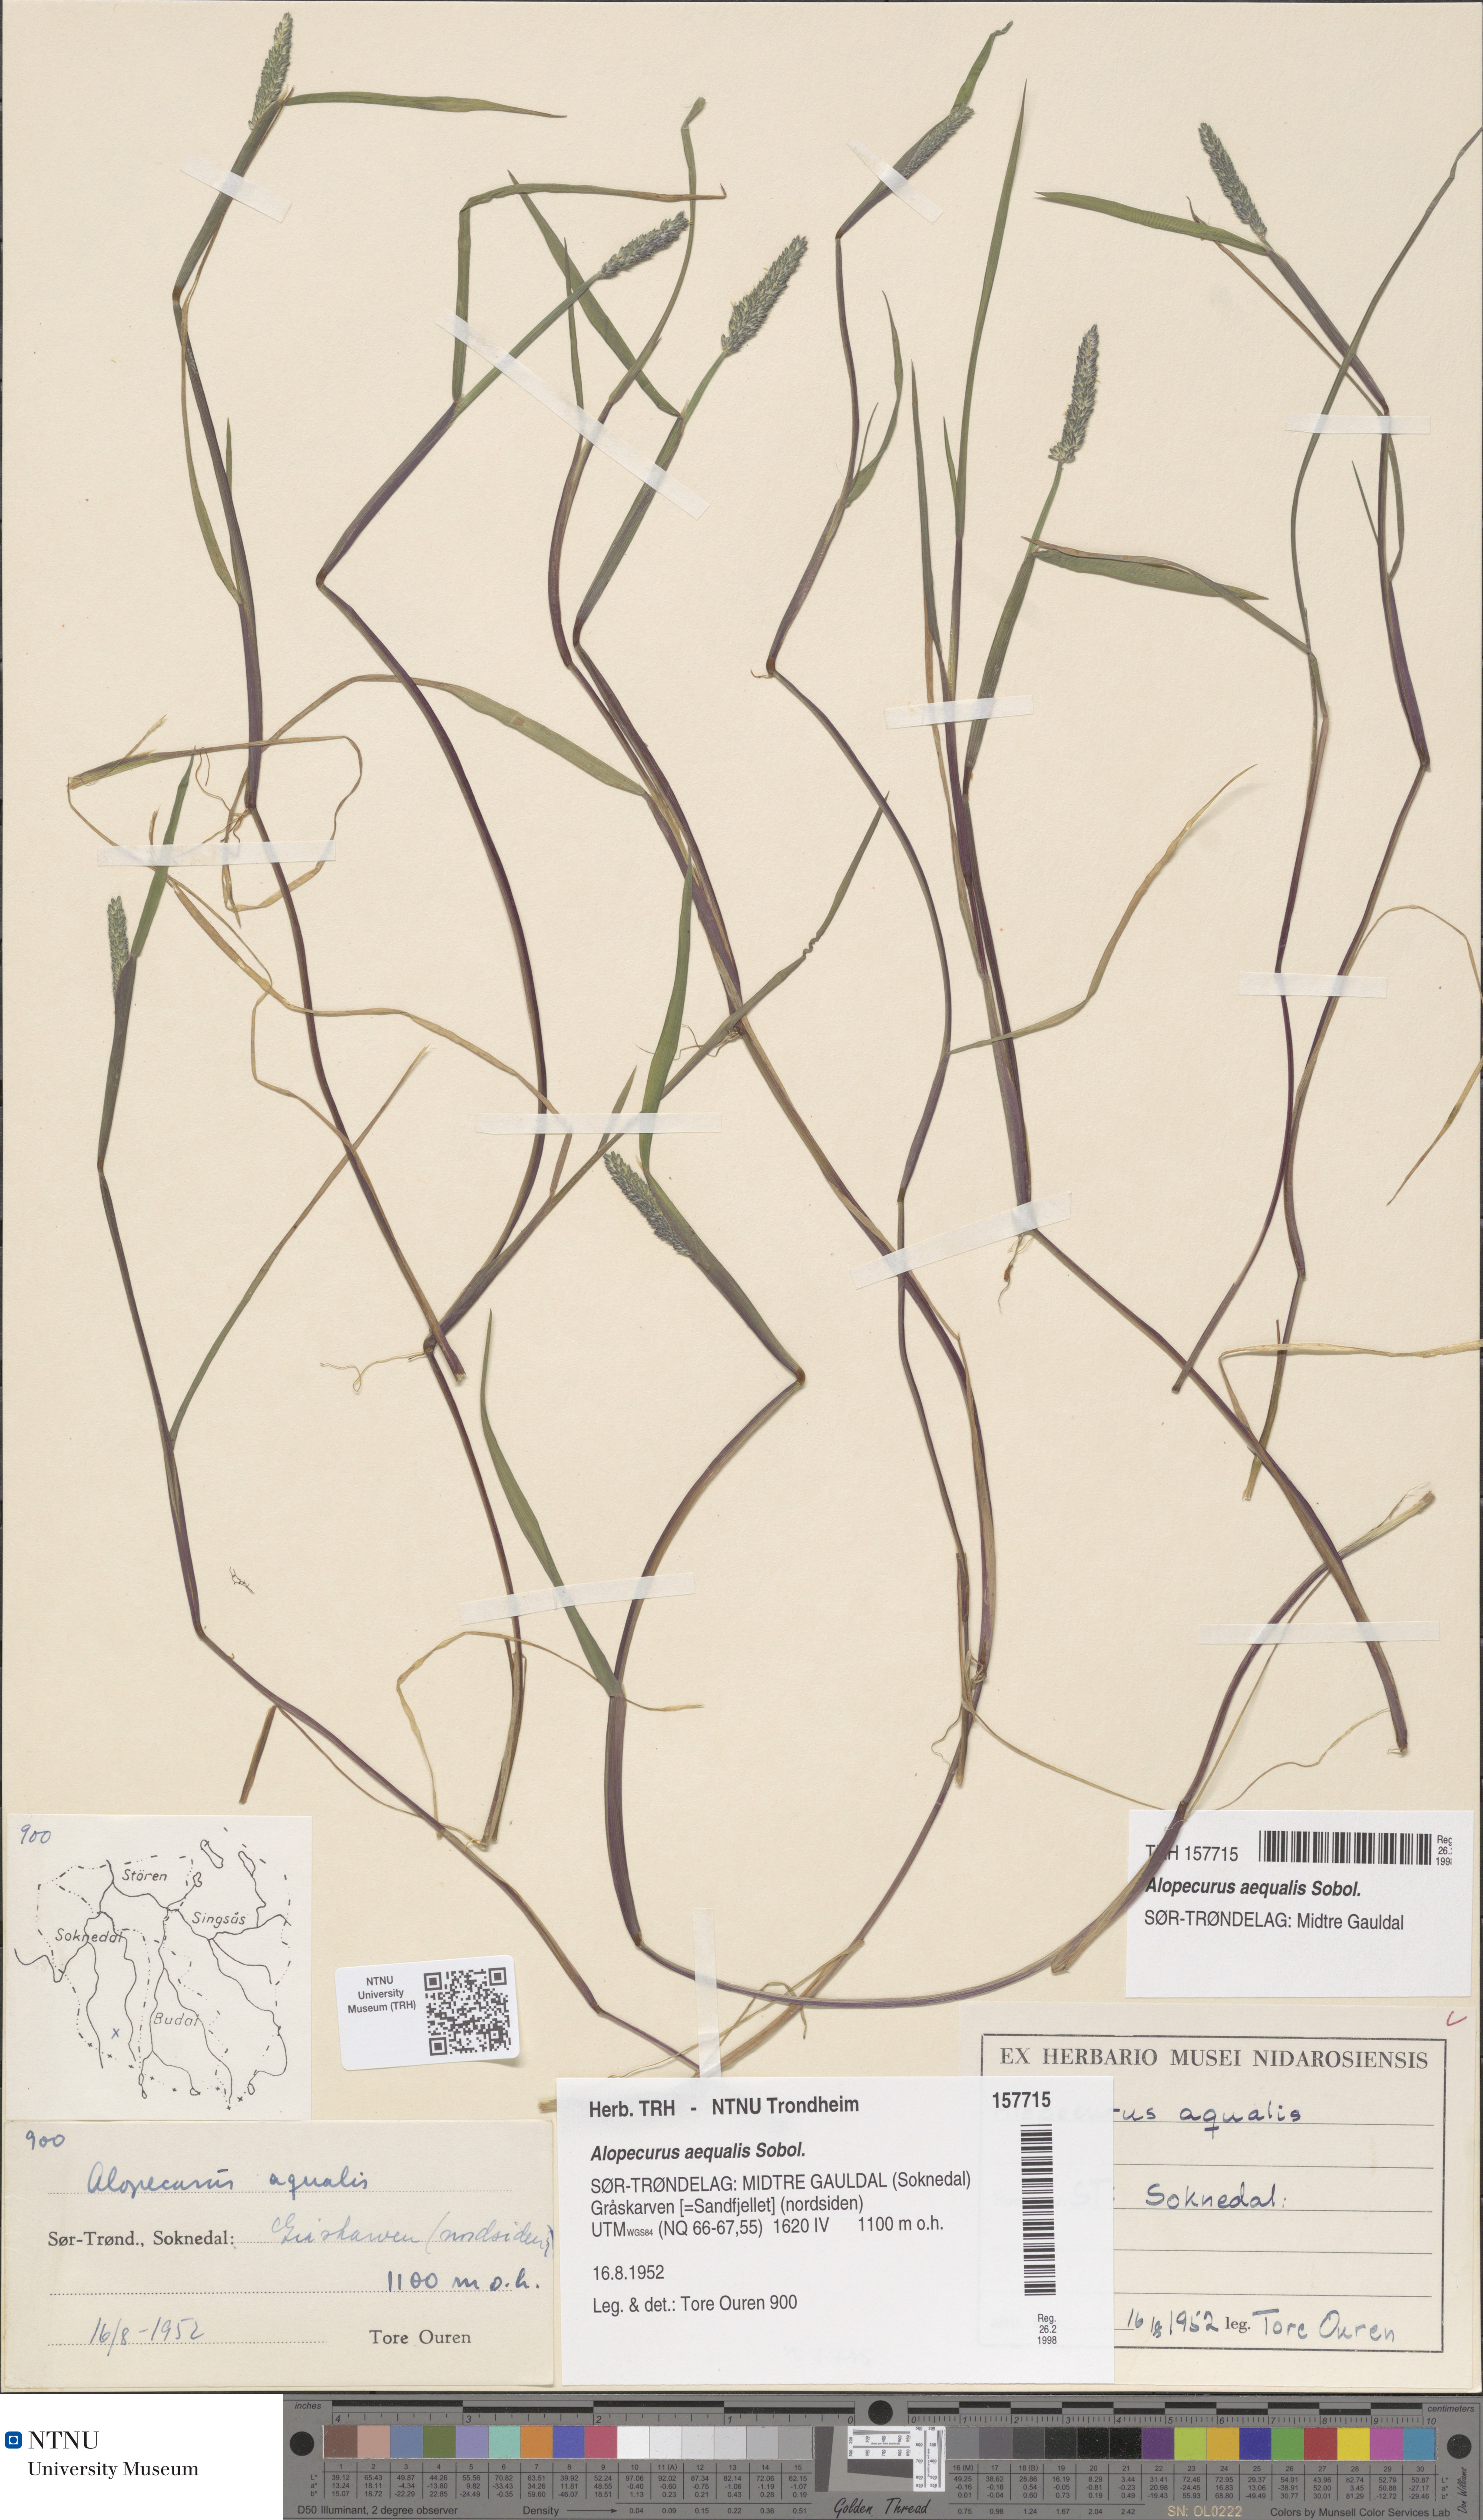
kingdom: Plantae
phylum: Tracheophyta
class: Liliopsida
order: Poales
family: Poaceae
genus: Alopecurus
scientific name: Alopecurus aequalis
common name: Orange foxtail
